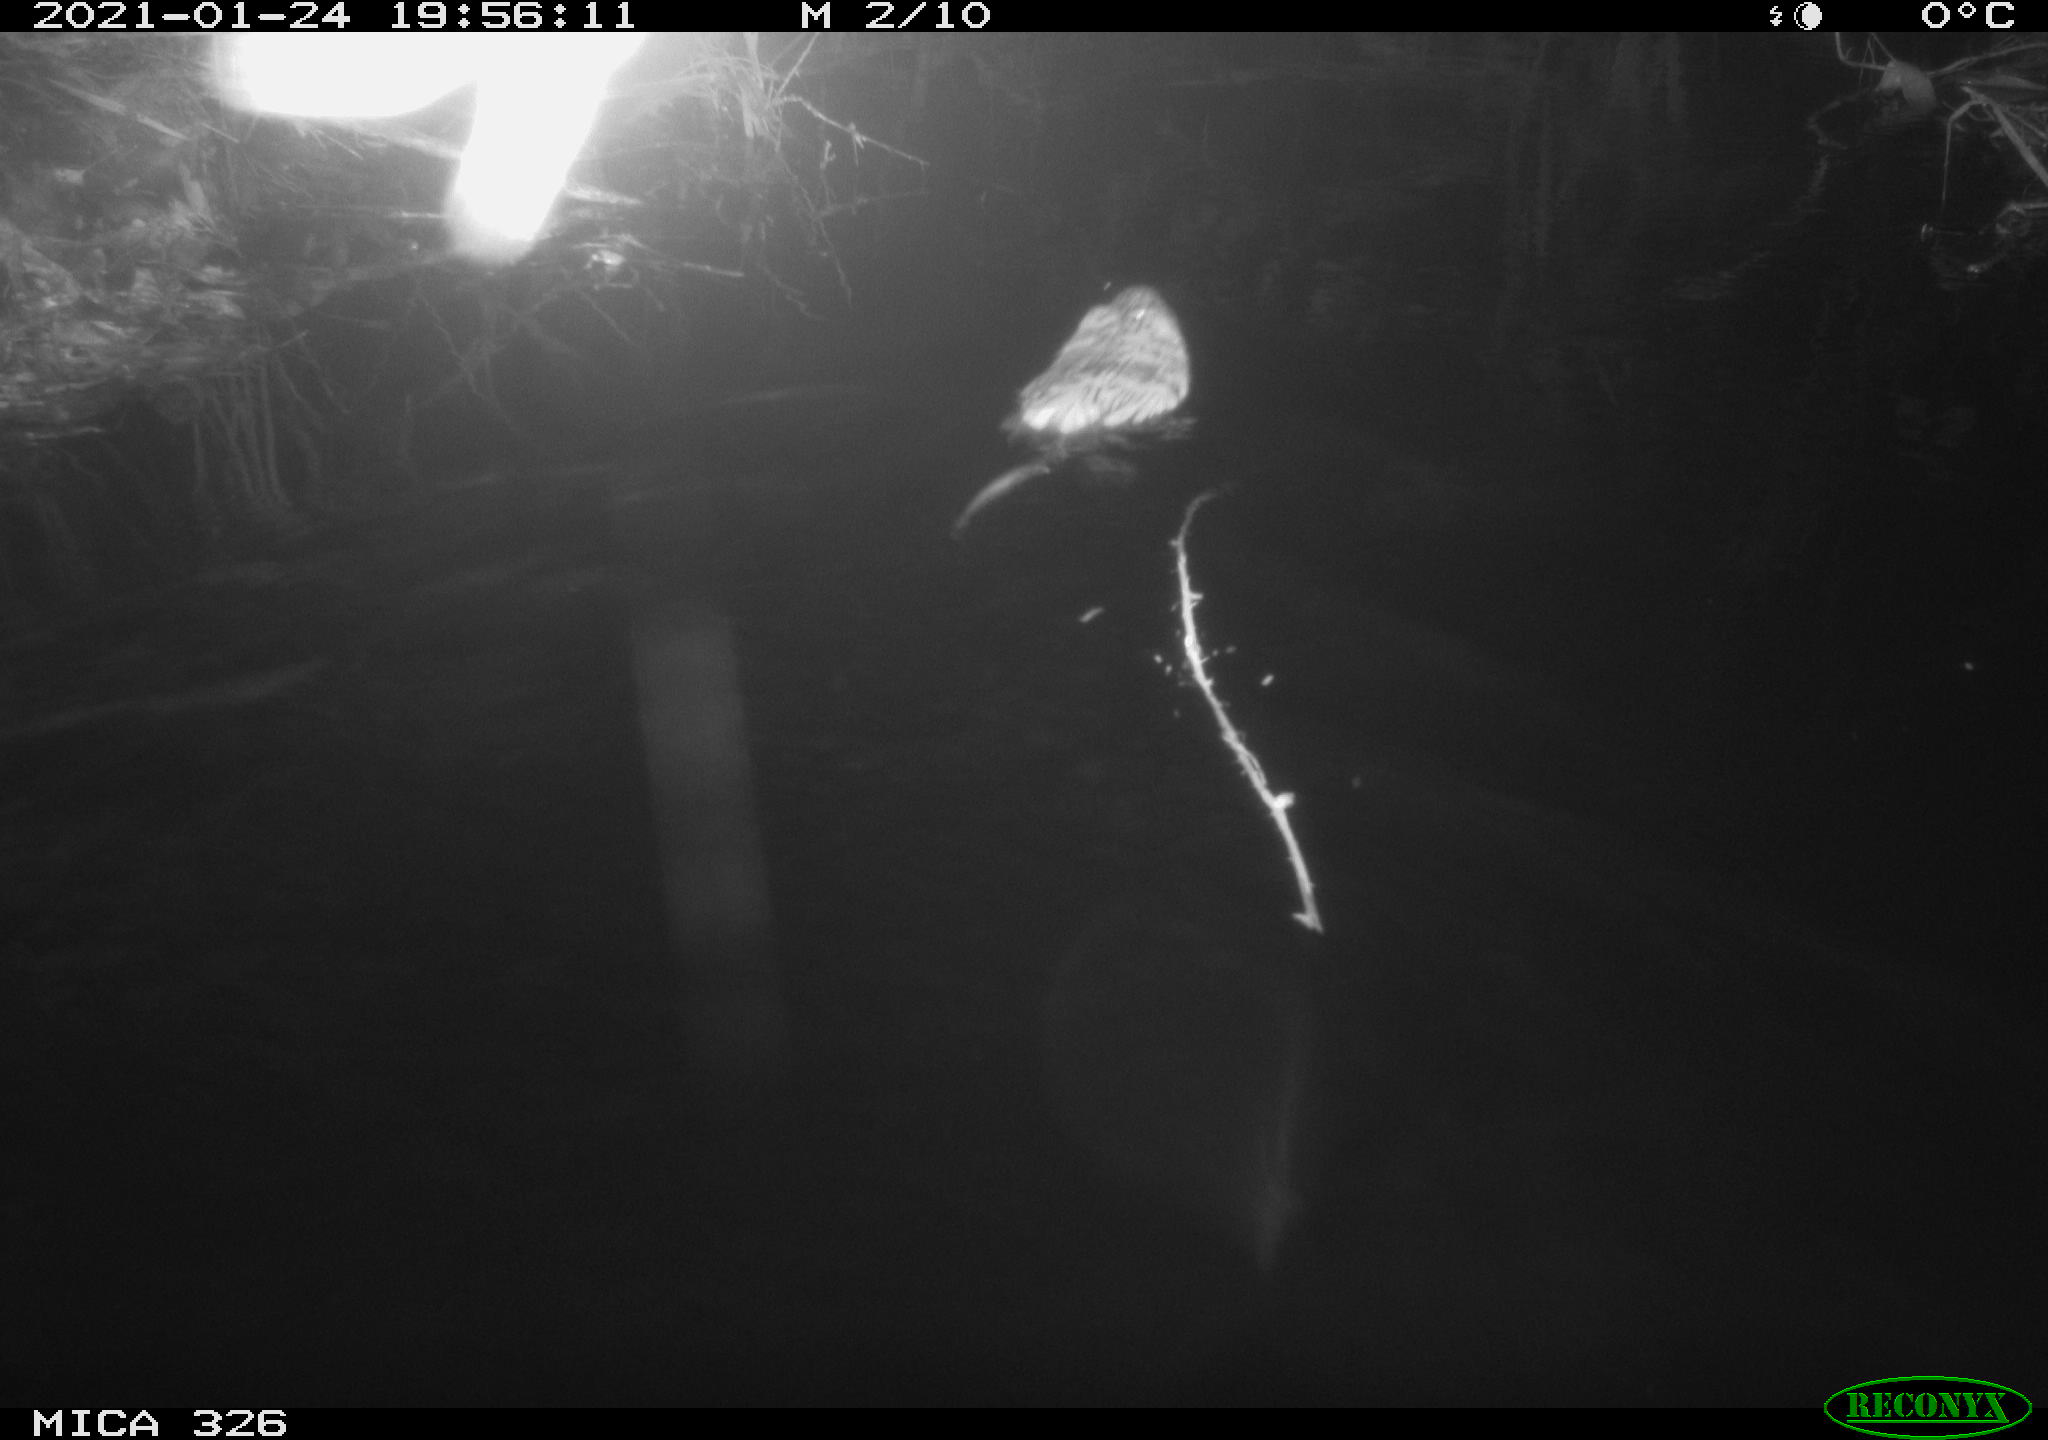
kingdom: Animalia
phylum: Chordata
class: Mammalia
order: Rodentia
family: Cricetidae
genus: Ondatra
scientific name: Ondatra zibethicus
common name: Muskrat
